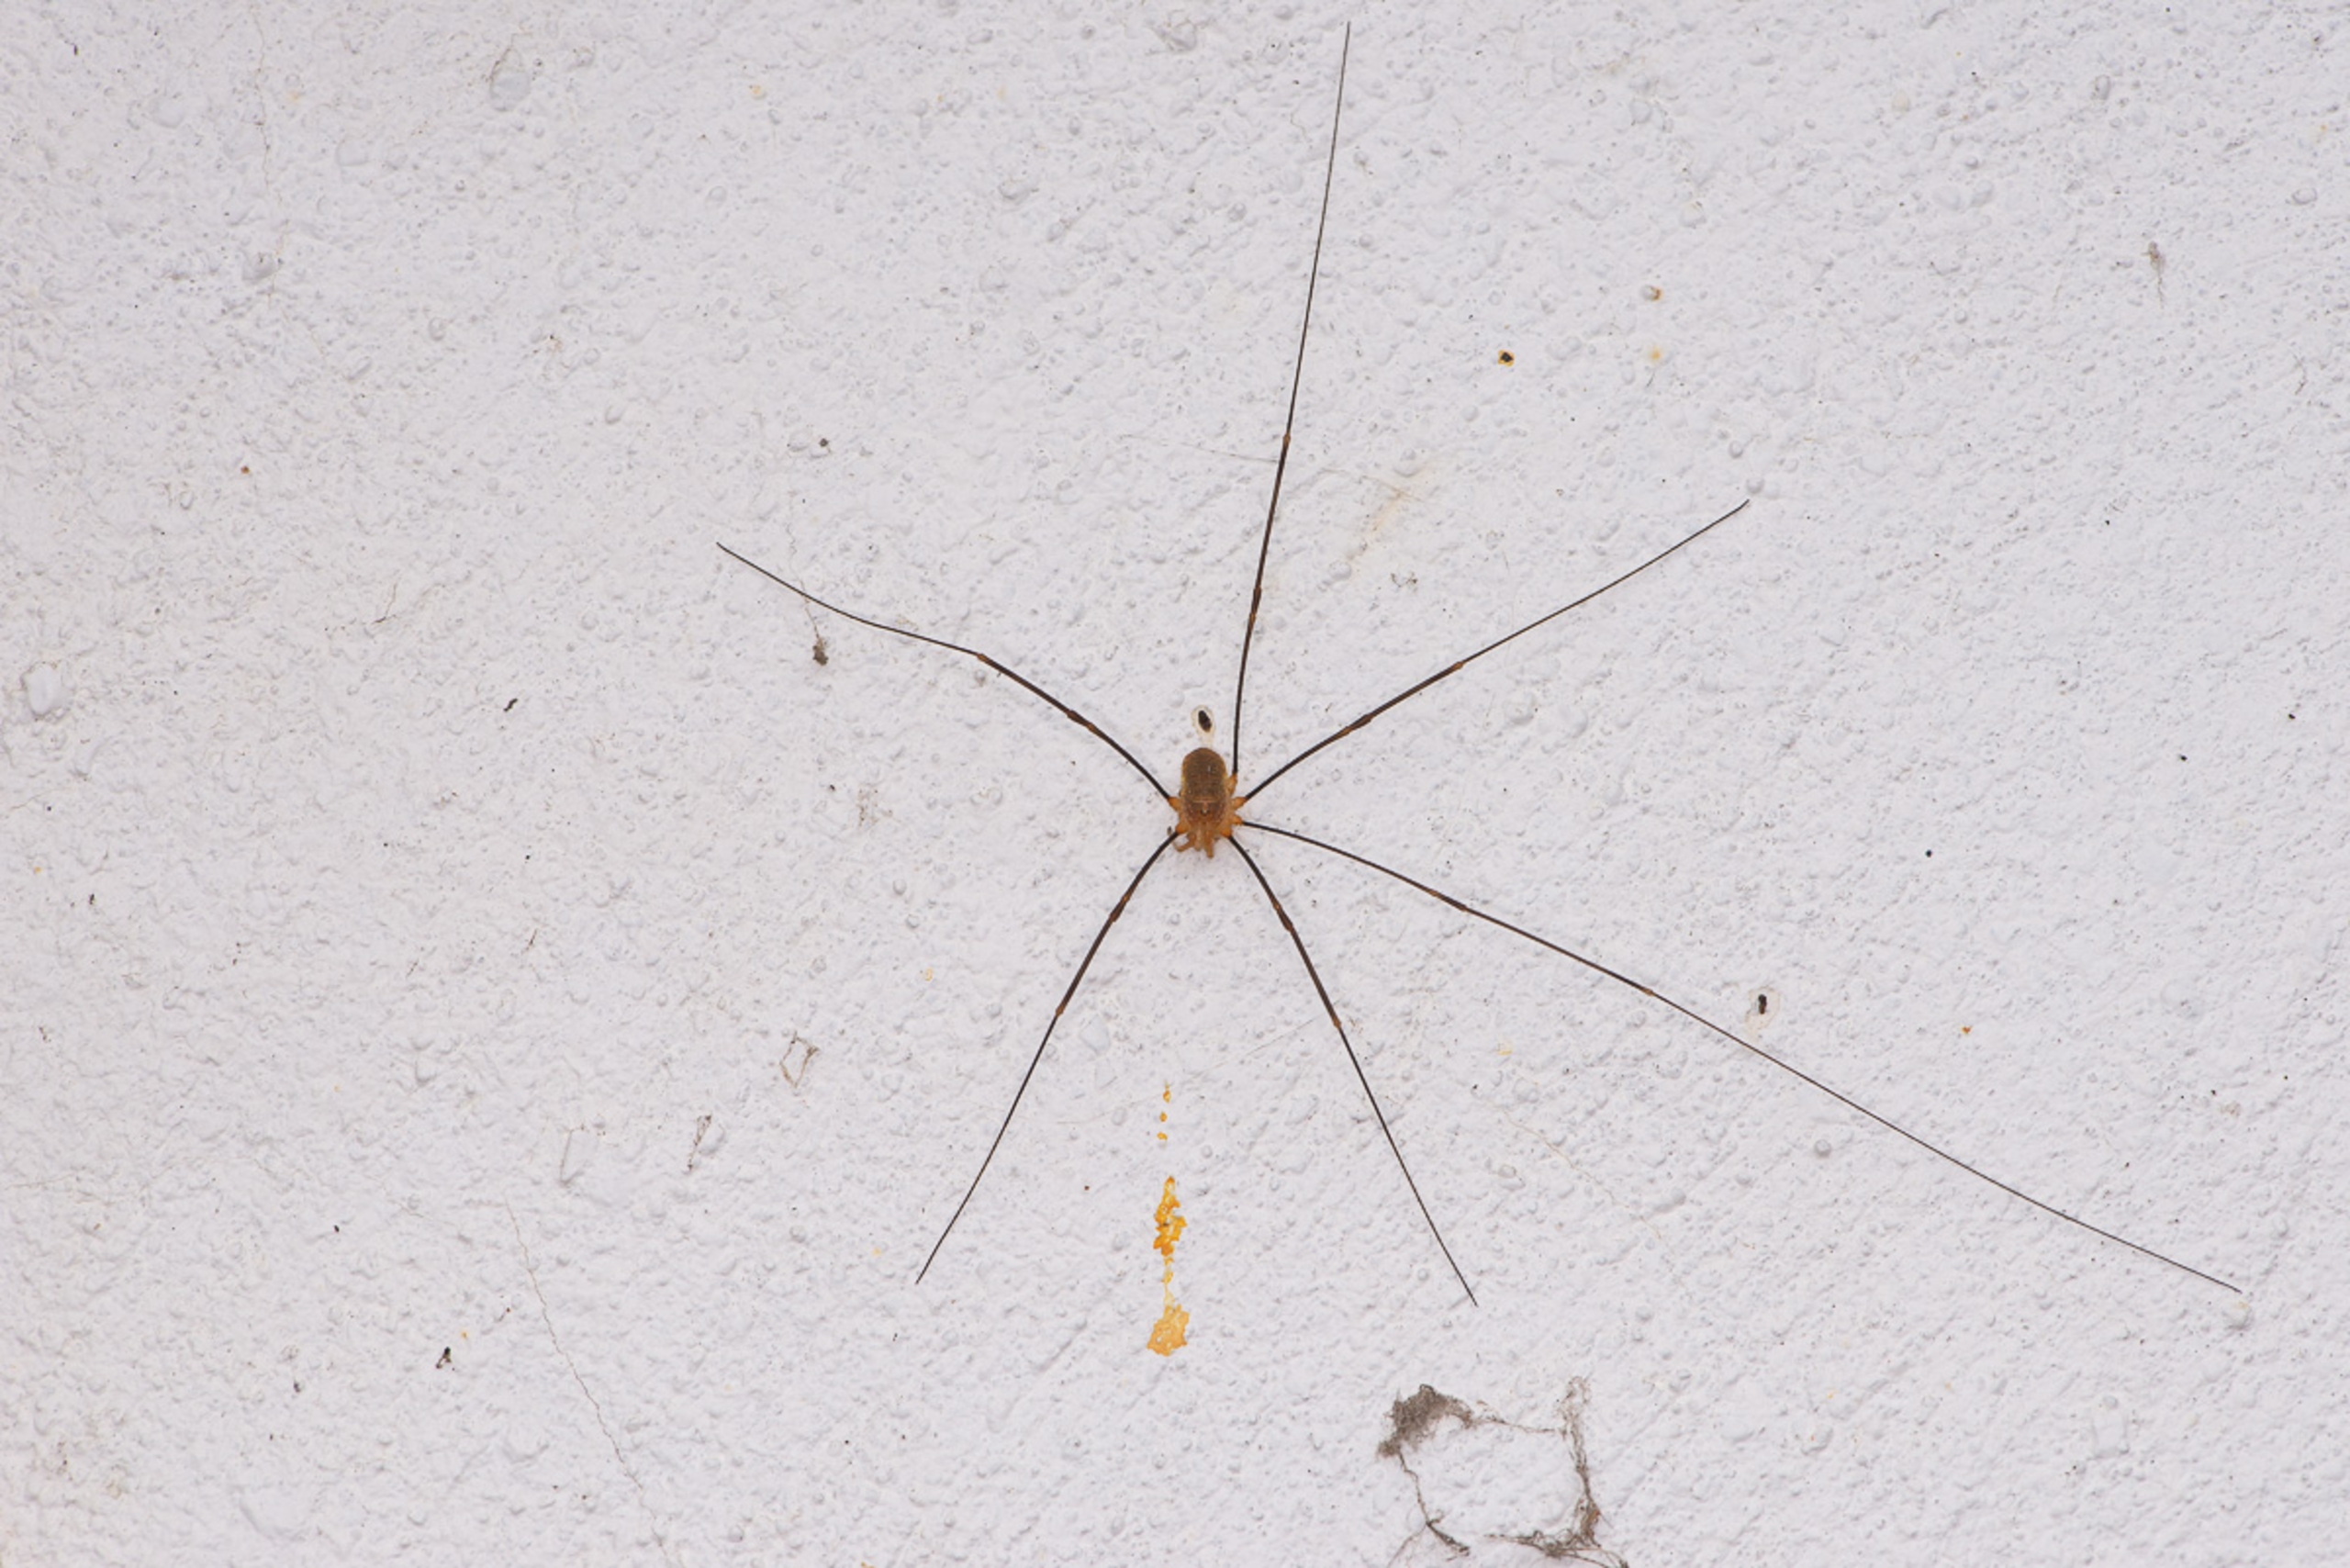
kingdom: Animalia
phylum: Arthropoda
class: Arachnida
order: Opiliones
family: Phalangiidae
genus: Opilio
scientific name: Opilio canestrinii
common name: Orange vægmejer
